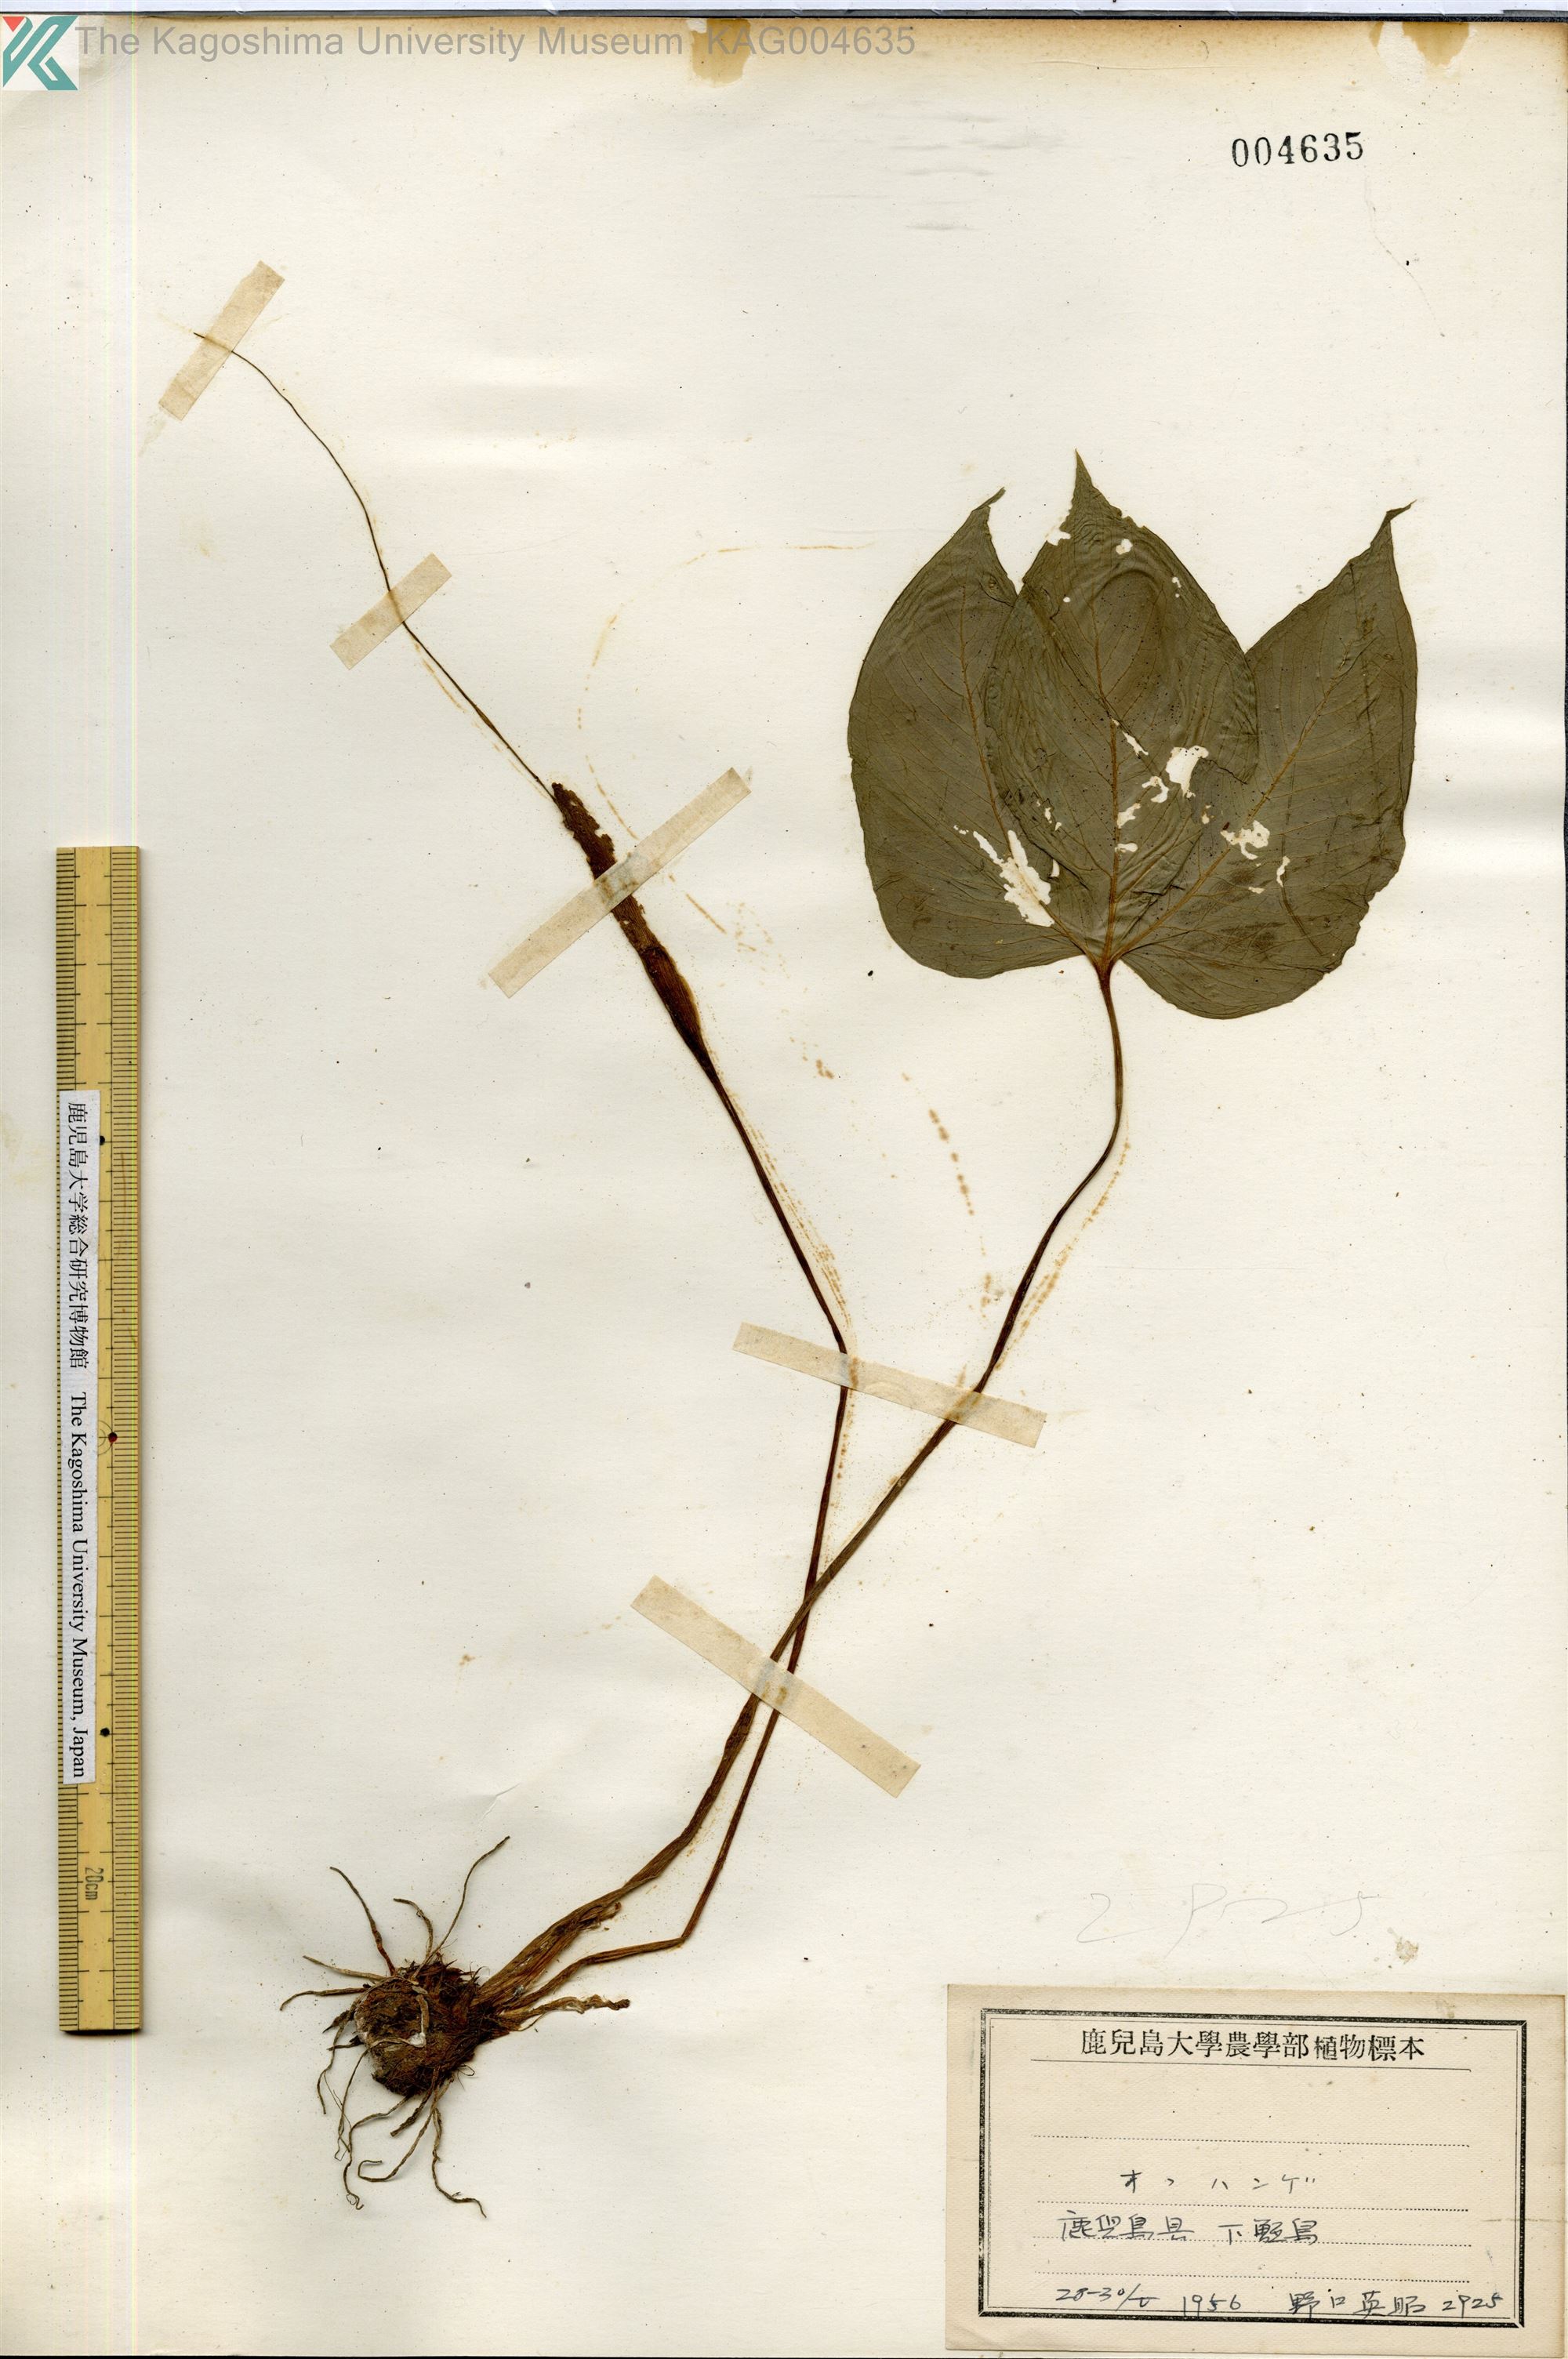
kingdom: Plantae
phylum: Tracheophyta
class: Liliopsida
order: Alismatales
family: Araceae
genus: Pinellia
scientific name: Pinellia tripartita
